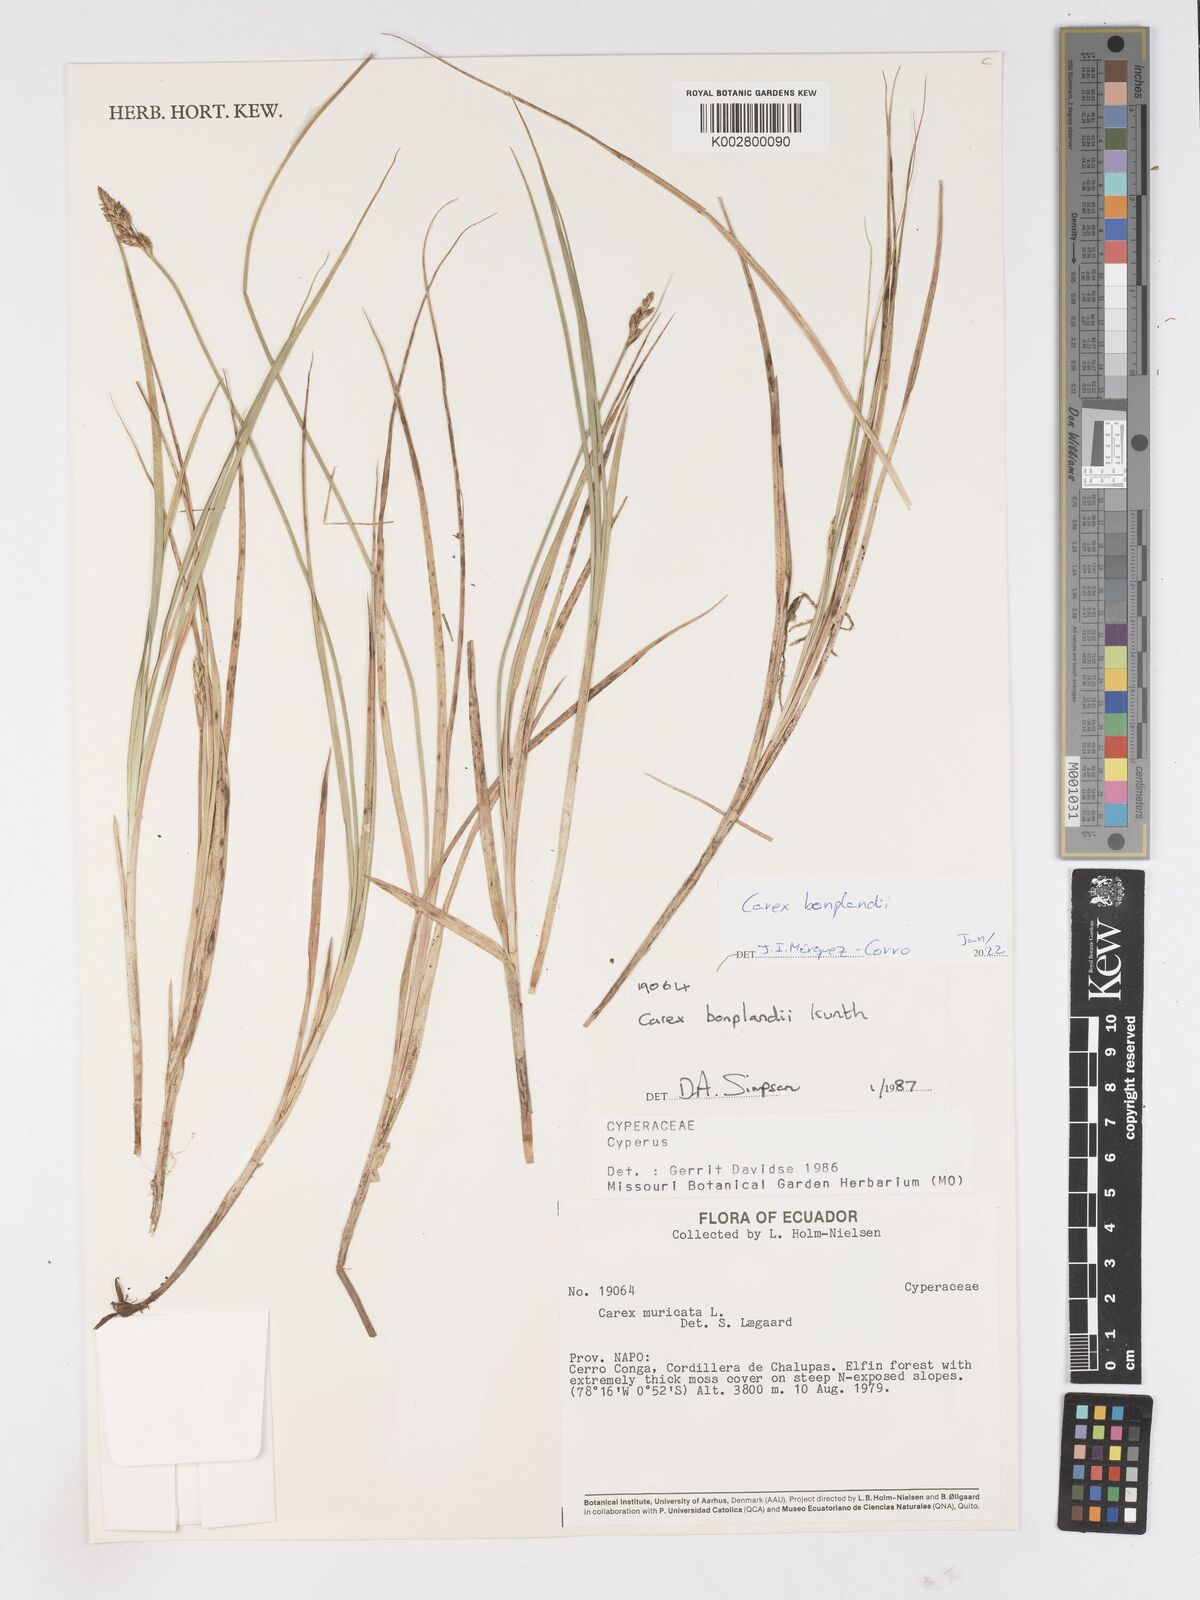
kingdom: Plantae
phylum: Tracheophyta
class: Liliopsida
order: Poales
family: Cyperaceae
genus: Carex
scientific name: Carex bonplandii
